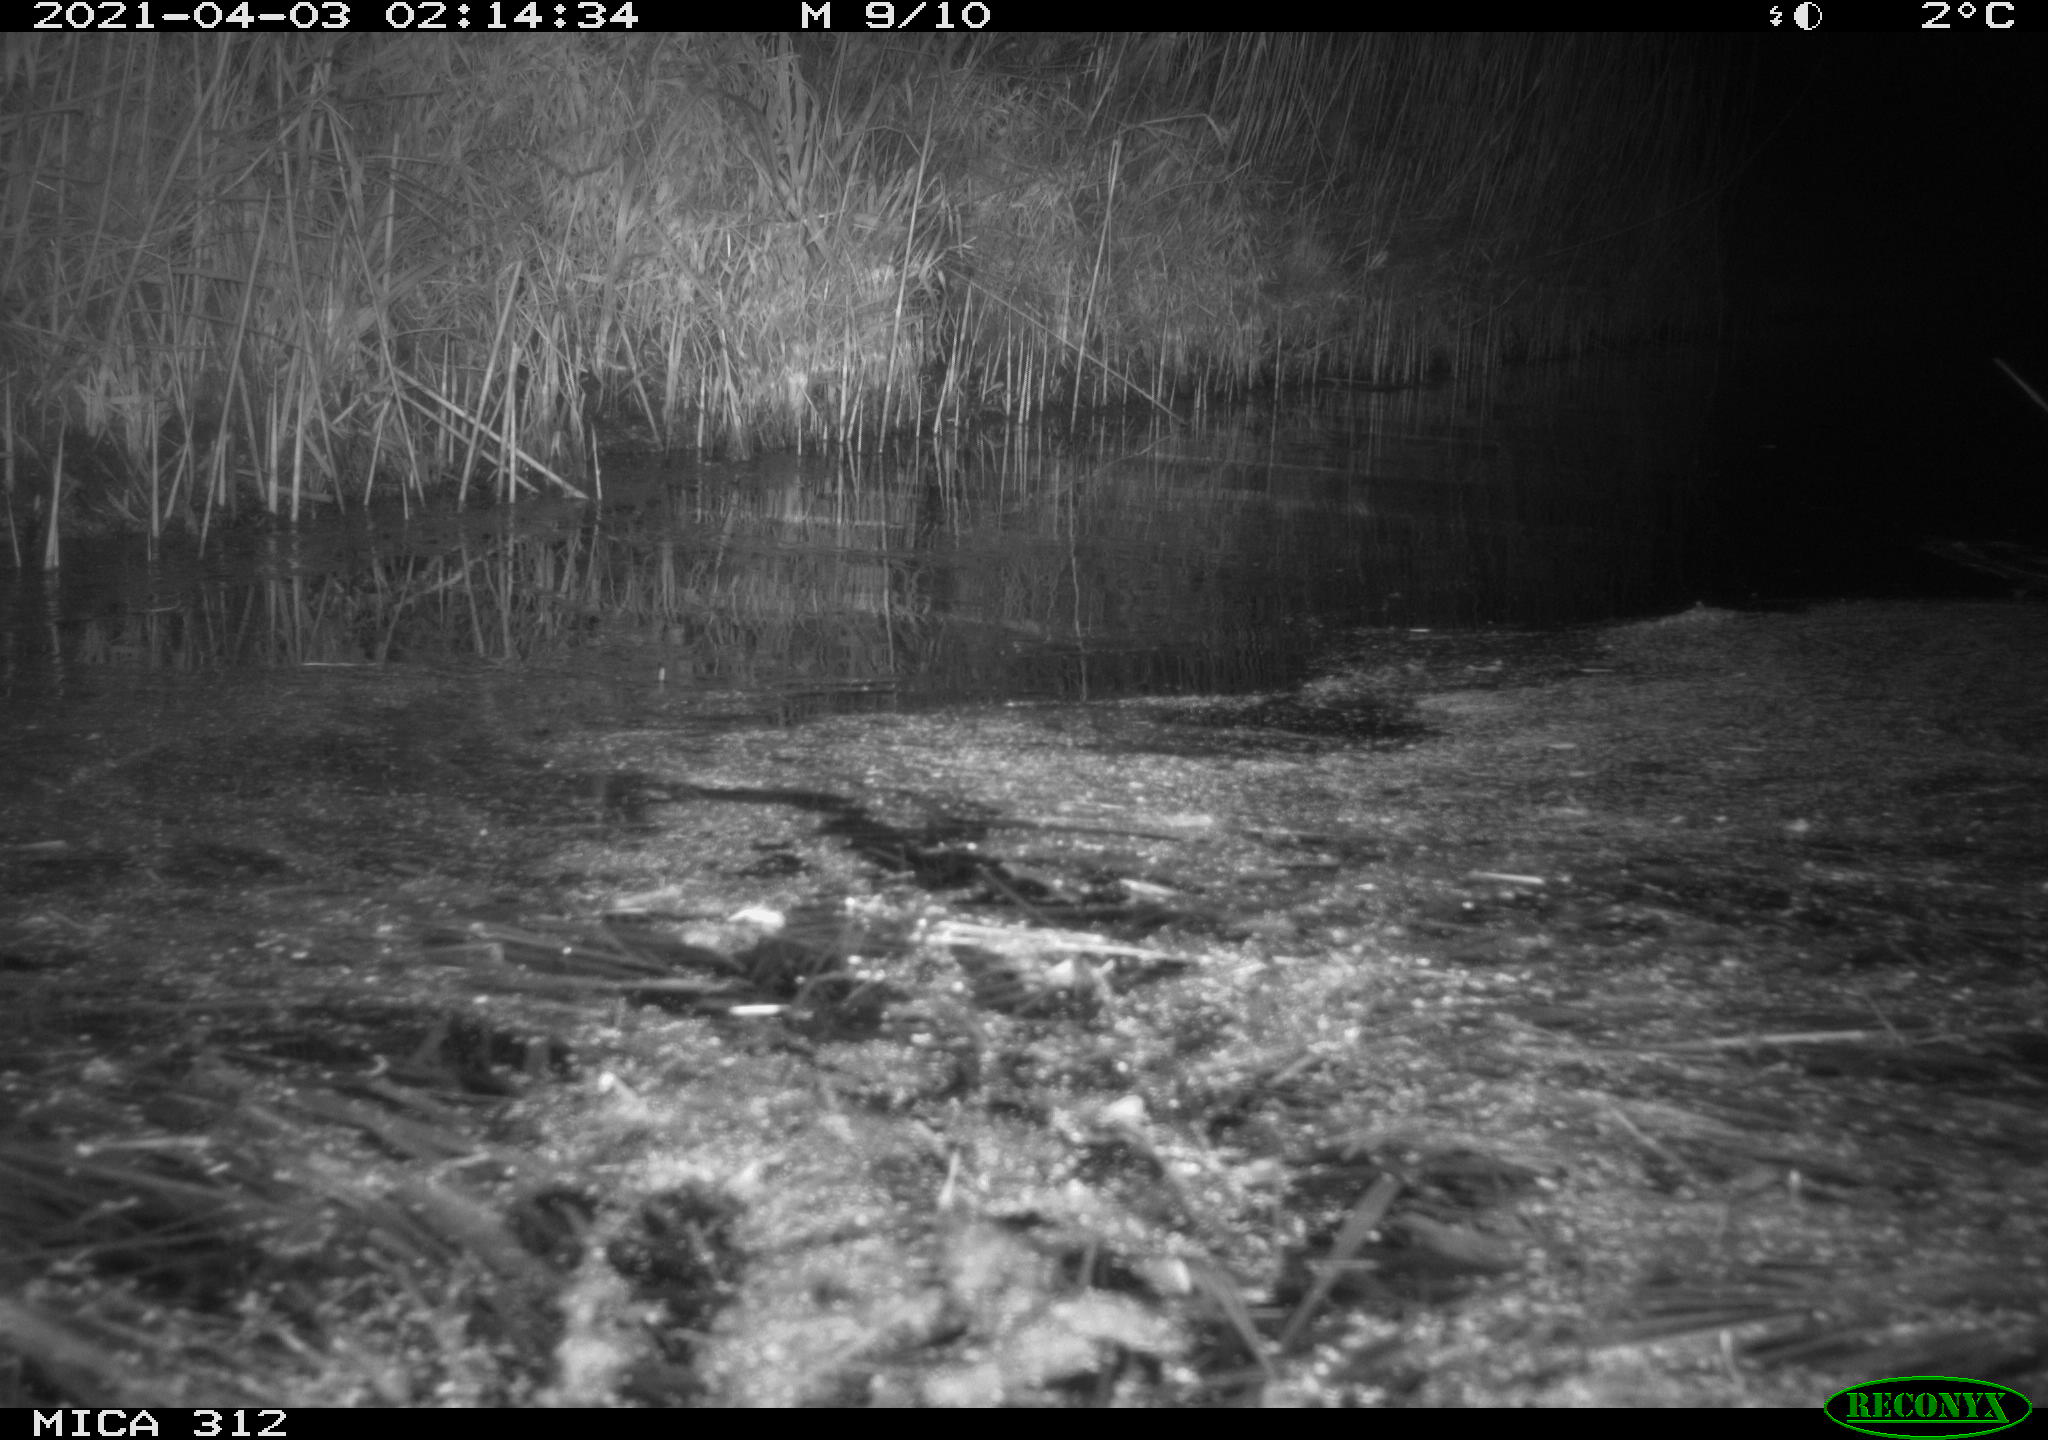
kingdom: Animalia
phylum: Chordata
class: Aves
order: Gruiformes
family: Rallidae
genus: Fulica
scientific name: Fulica atra
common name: Eurasian coot
